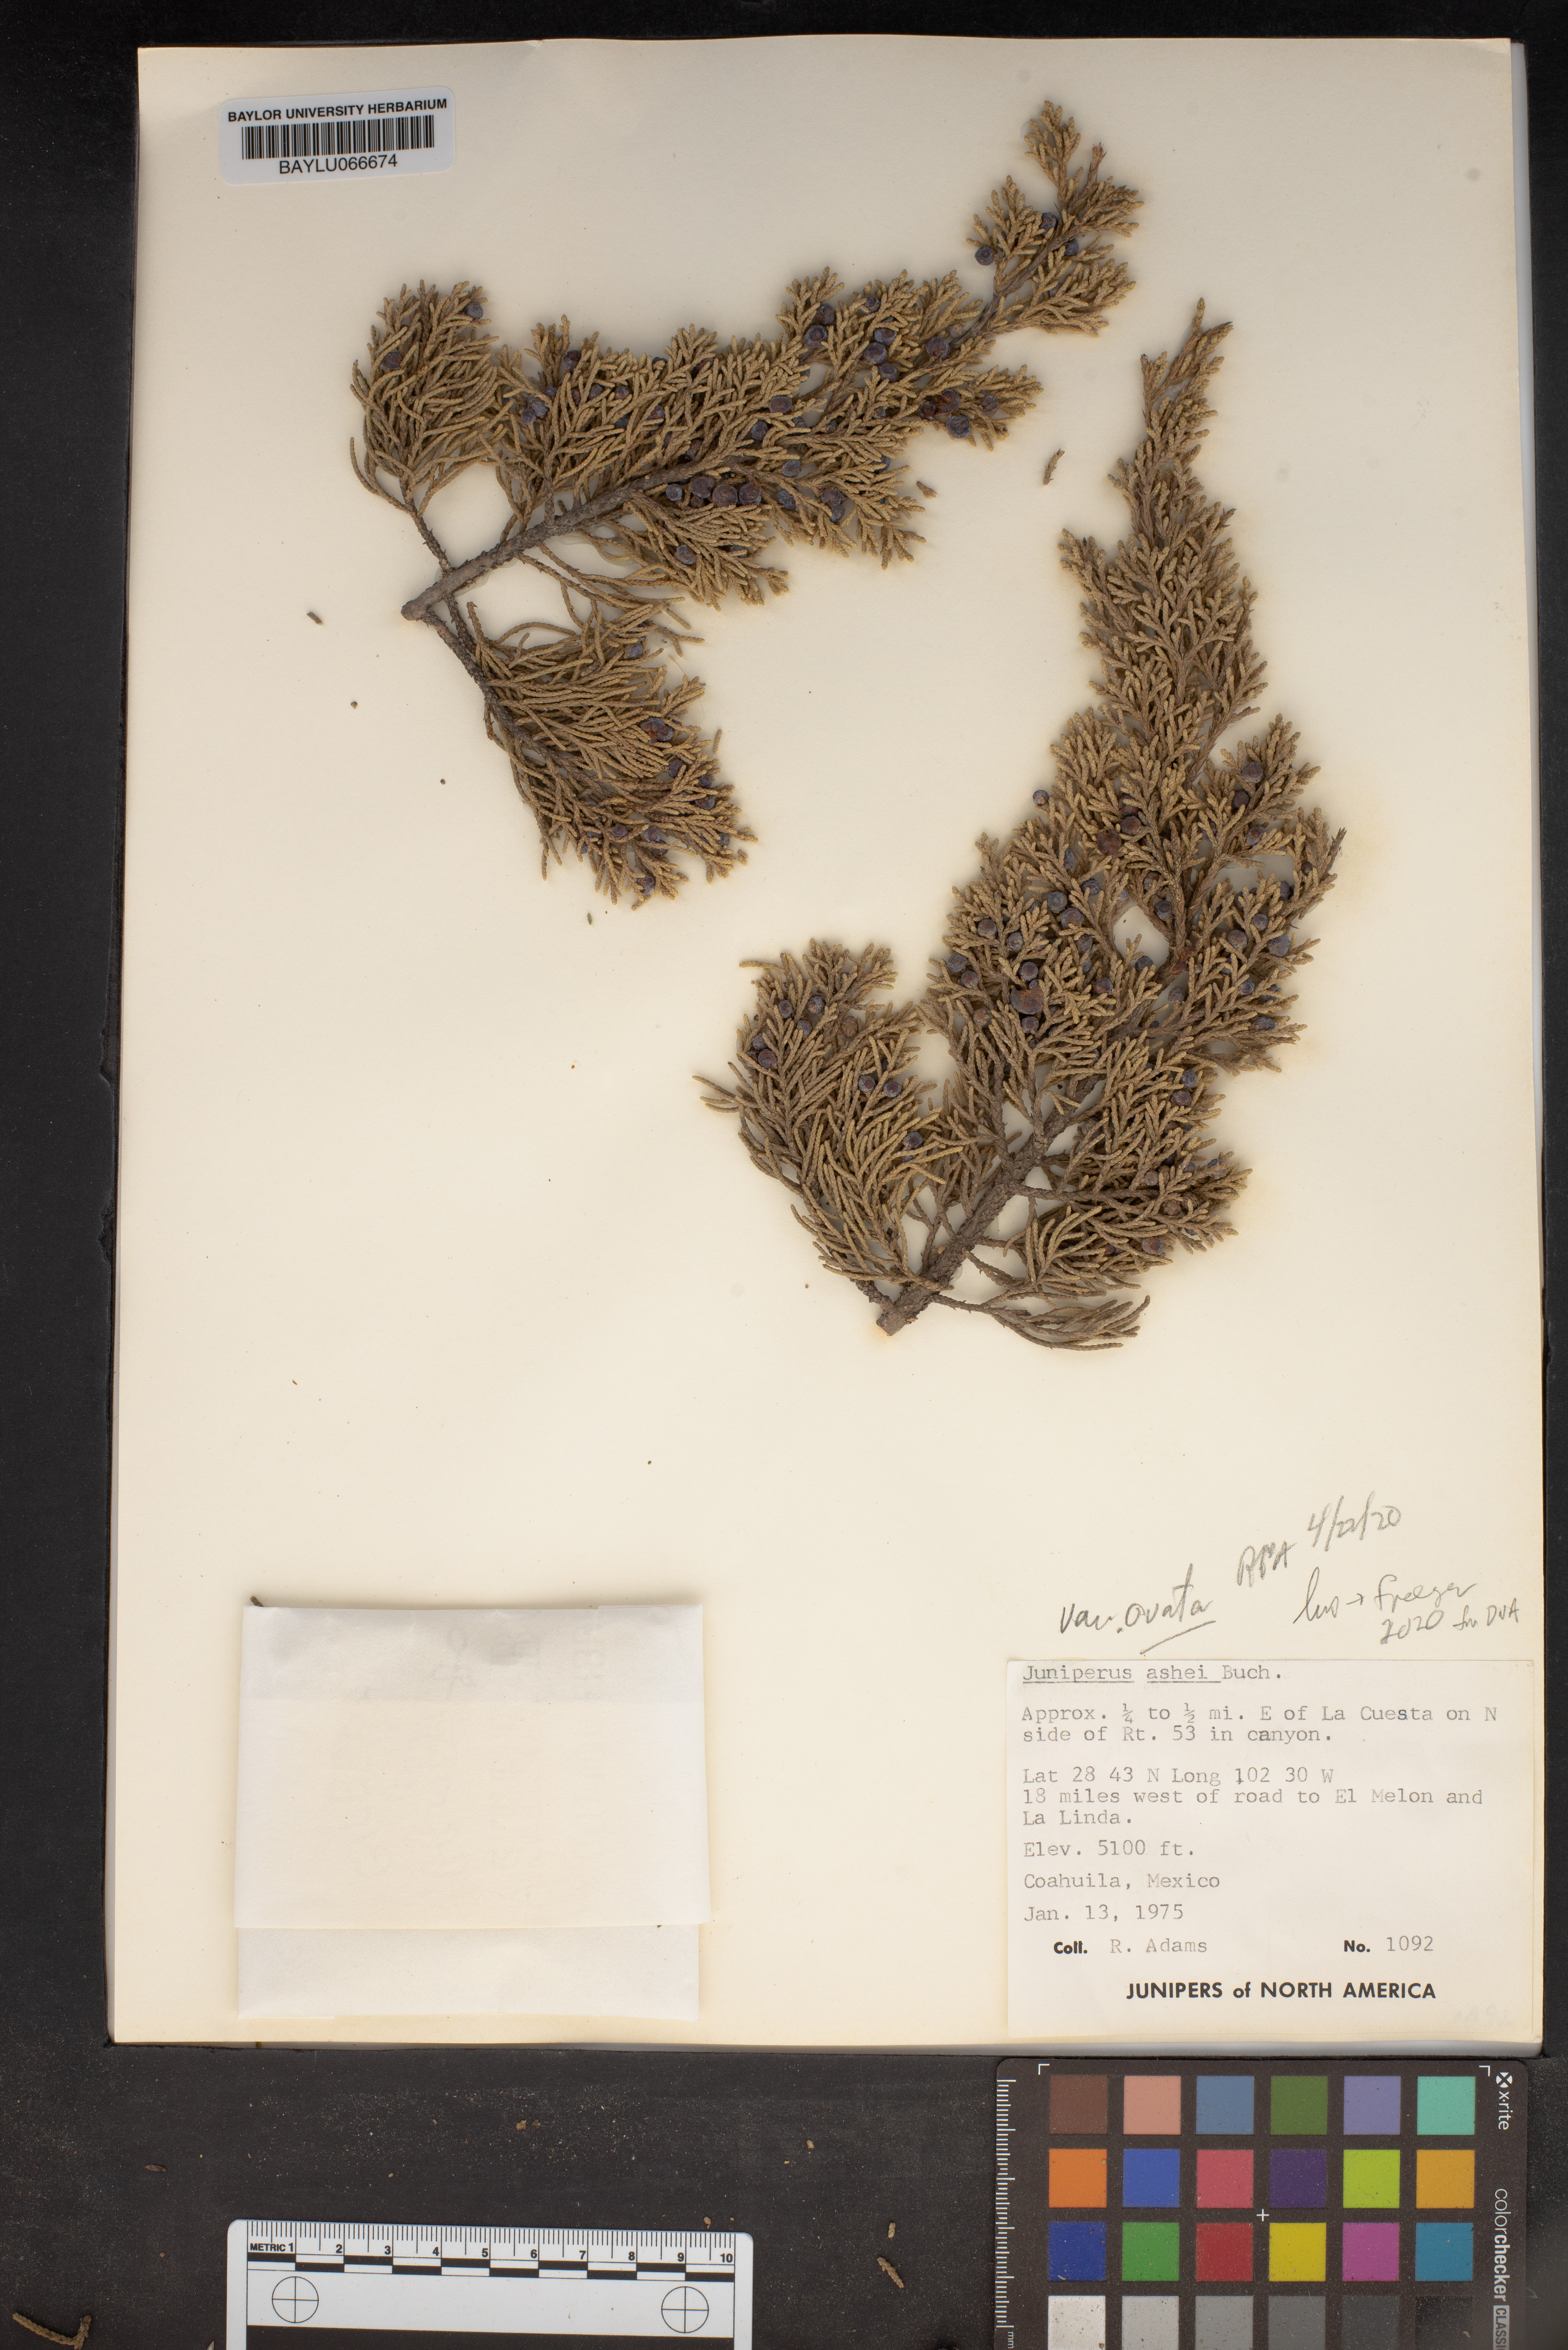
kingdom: Plantae
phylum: Tracheophyta
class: Pinopsida
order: Pinales
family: Cupressaceae
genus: Juniperus
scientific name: Juniperus ashei
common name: Mexican juniper
